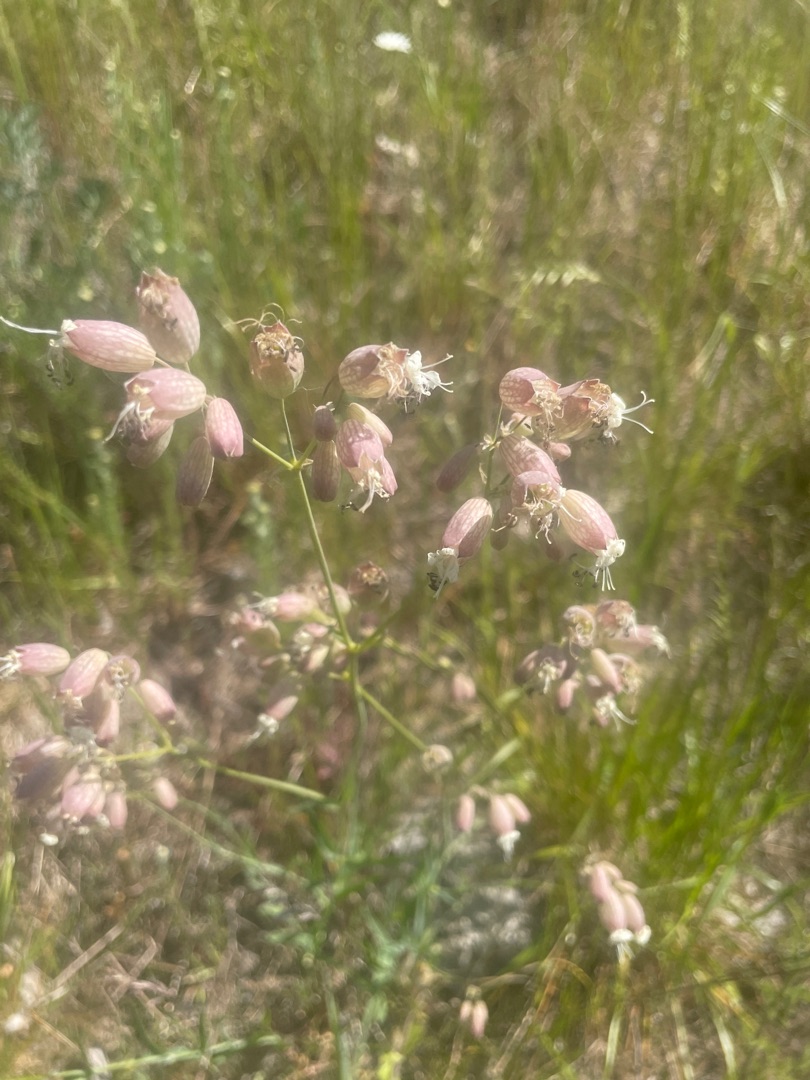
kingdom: Plantae
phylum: Tracheophyta
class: Magnoliopsida
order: Caryophyllales
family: Caryophyllaceae
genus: Silene
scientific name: Silene vulgaris
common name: Blæresmælde
